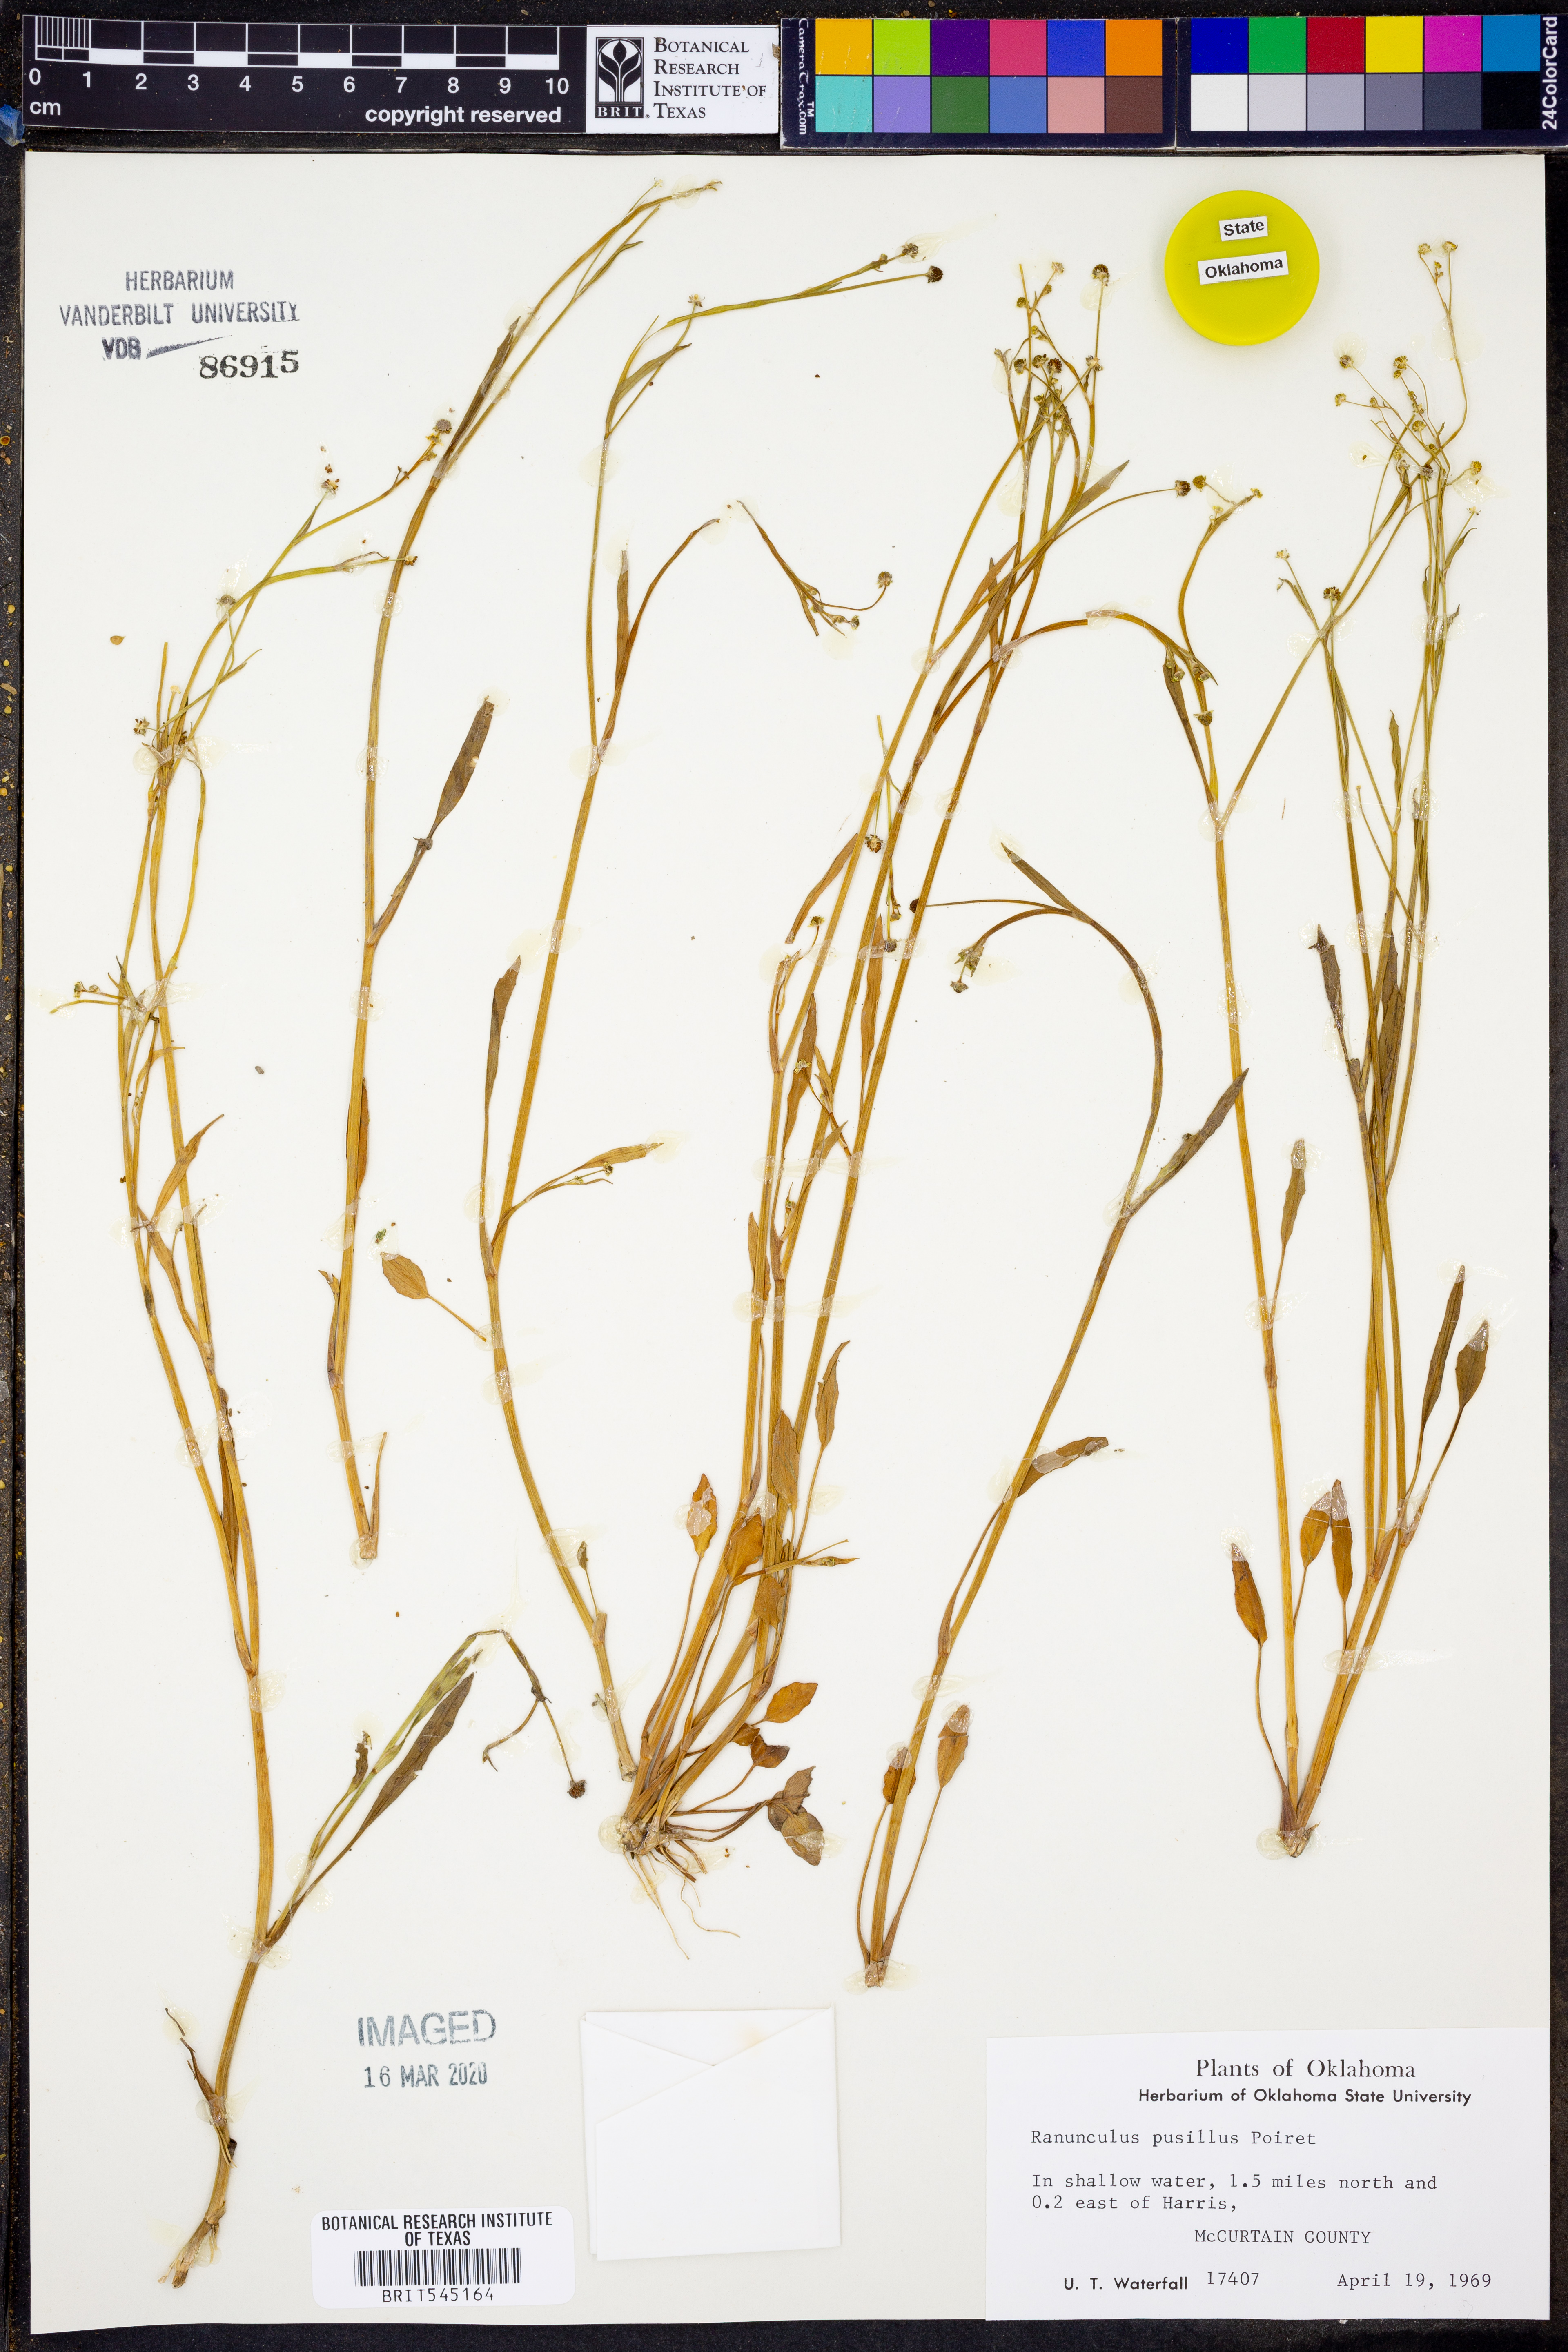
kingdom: Plantae
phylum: Tracheophyta
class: Magnoliopsida
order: Ranunculales
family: Ranunculaceae
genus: Ranunculus
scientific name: Ranunculus pusillus
